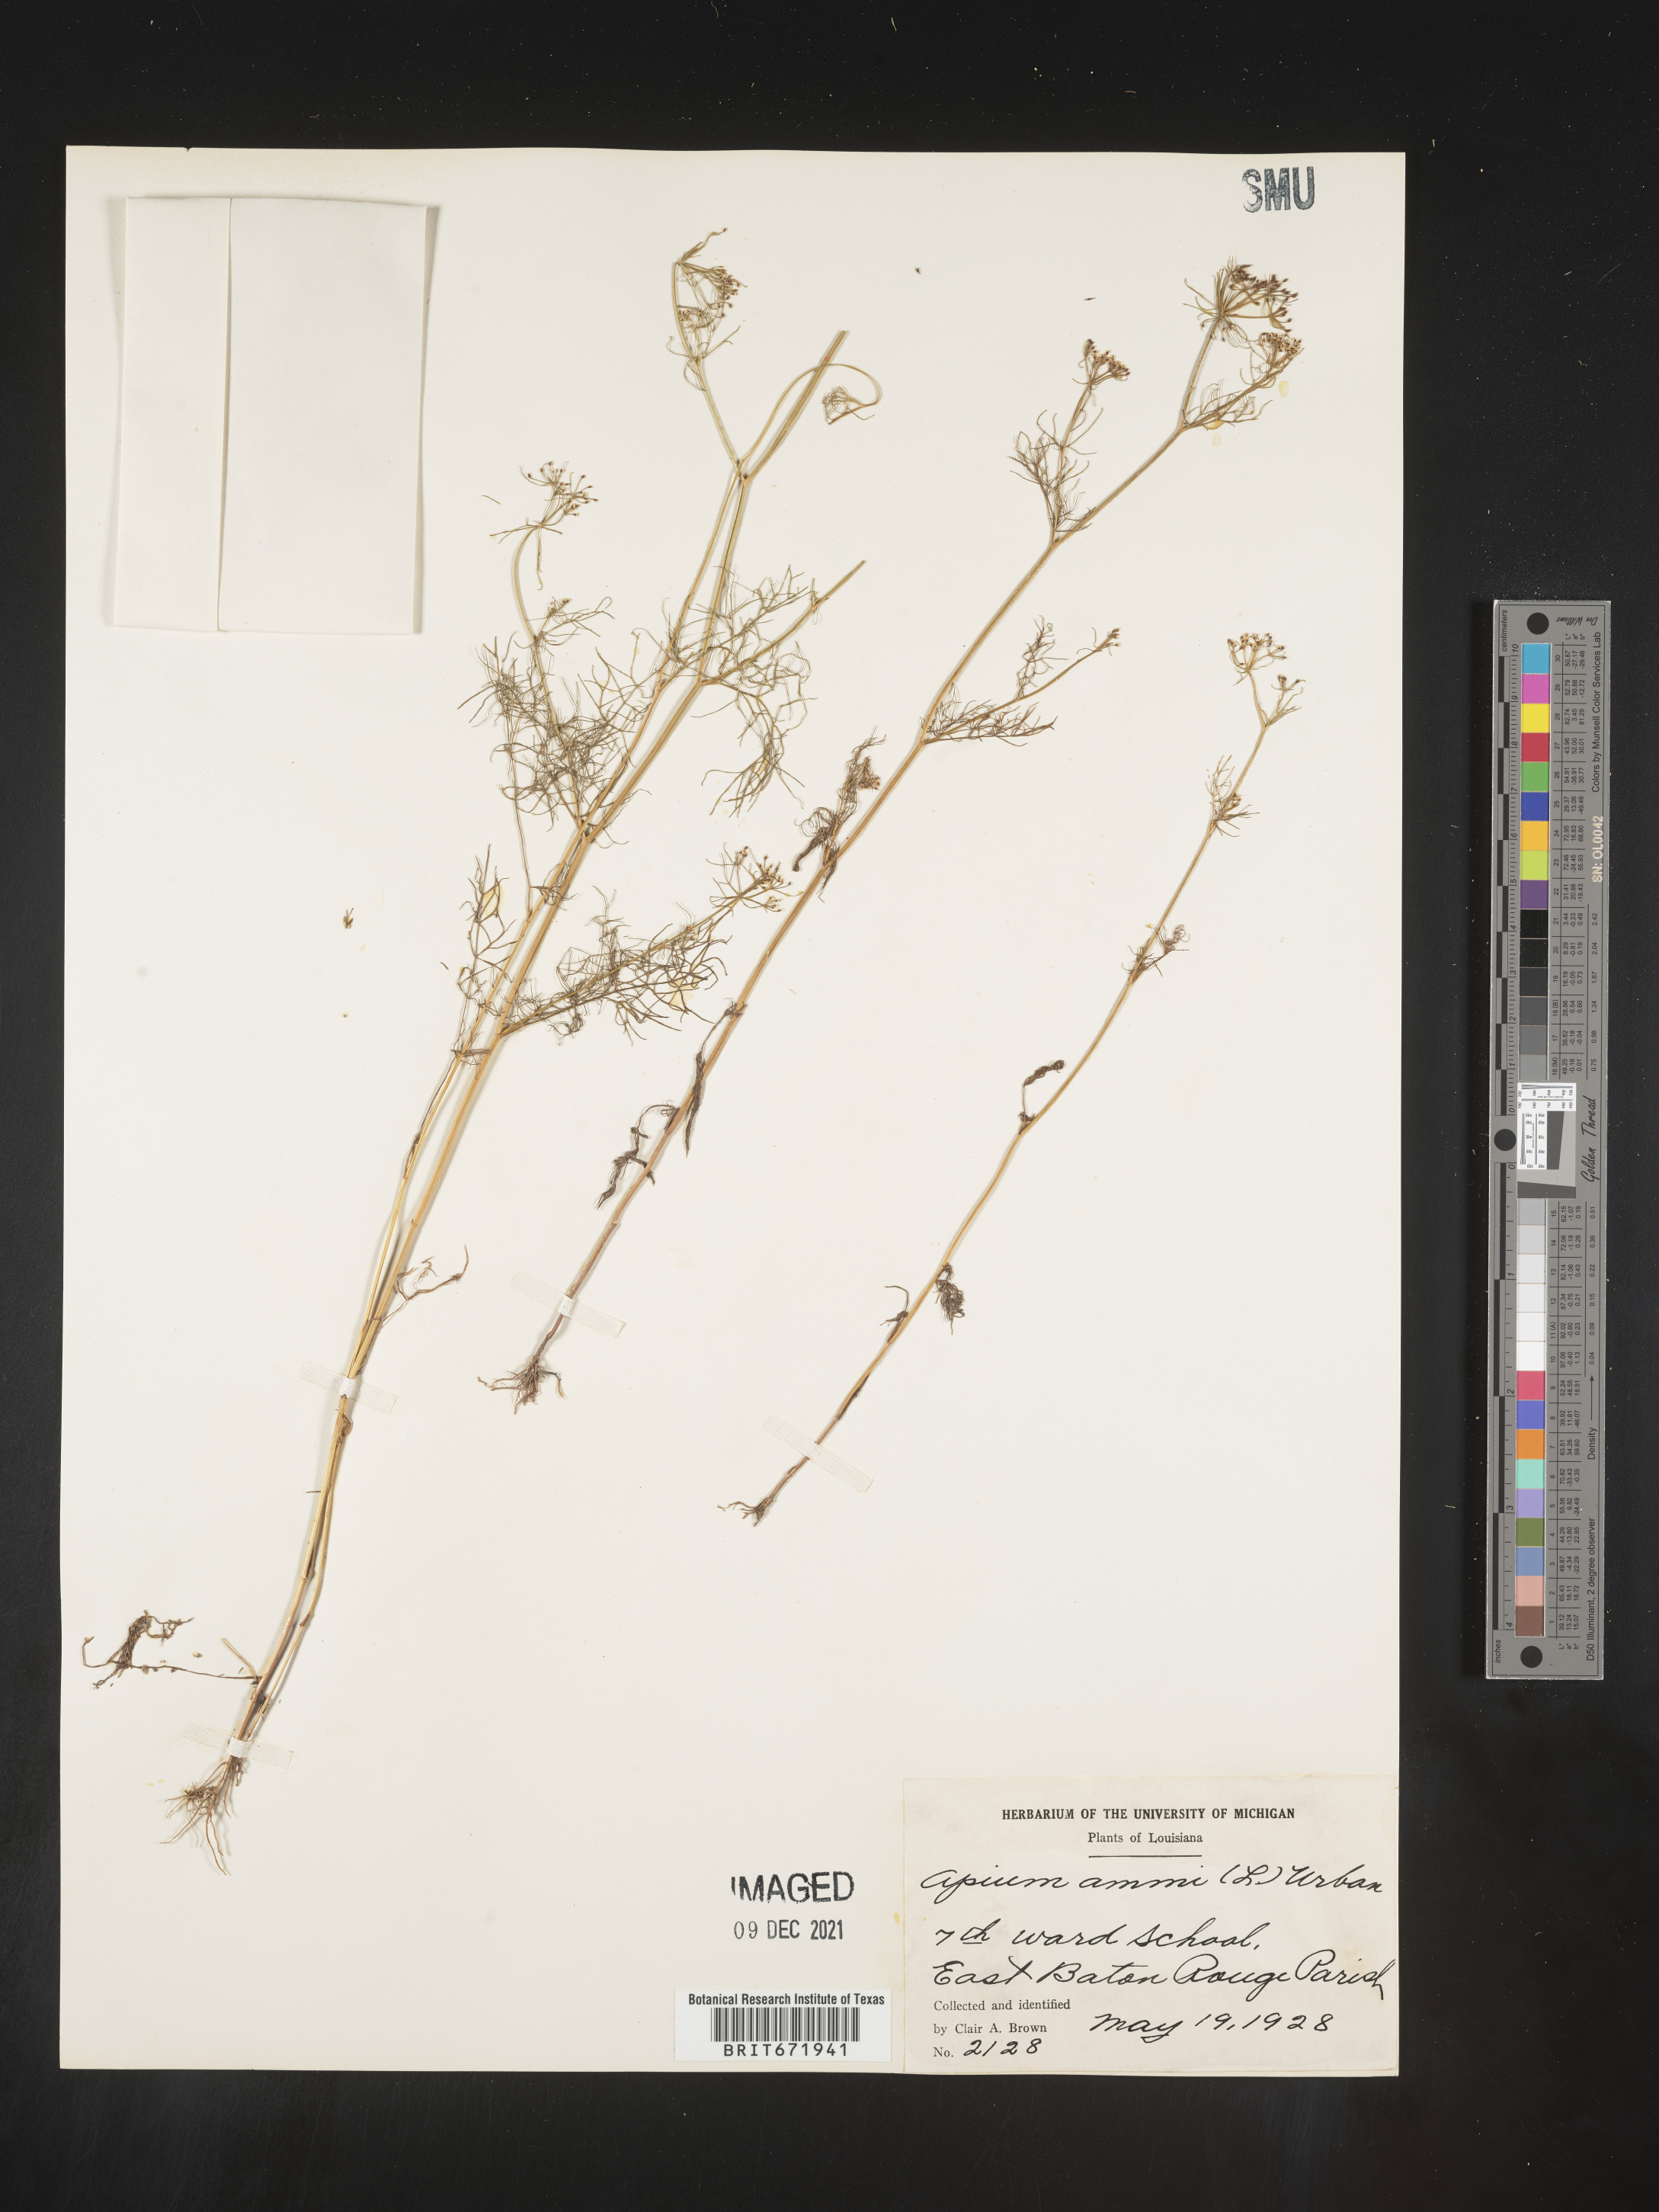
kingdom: Plantae
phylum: Tracheophyta
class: Magnoliopsida
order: Apiales
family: Apiaceae
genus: Ptilimnium
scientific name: Ptilimnium capillaceum
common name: Herbwilliam
